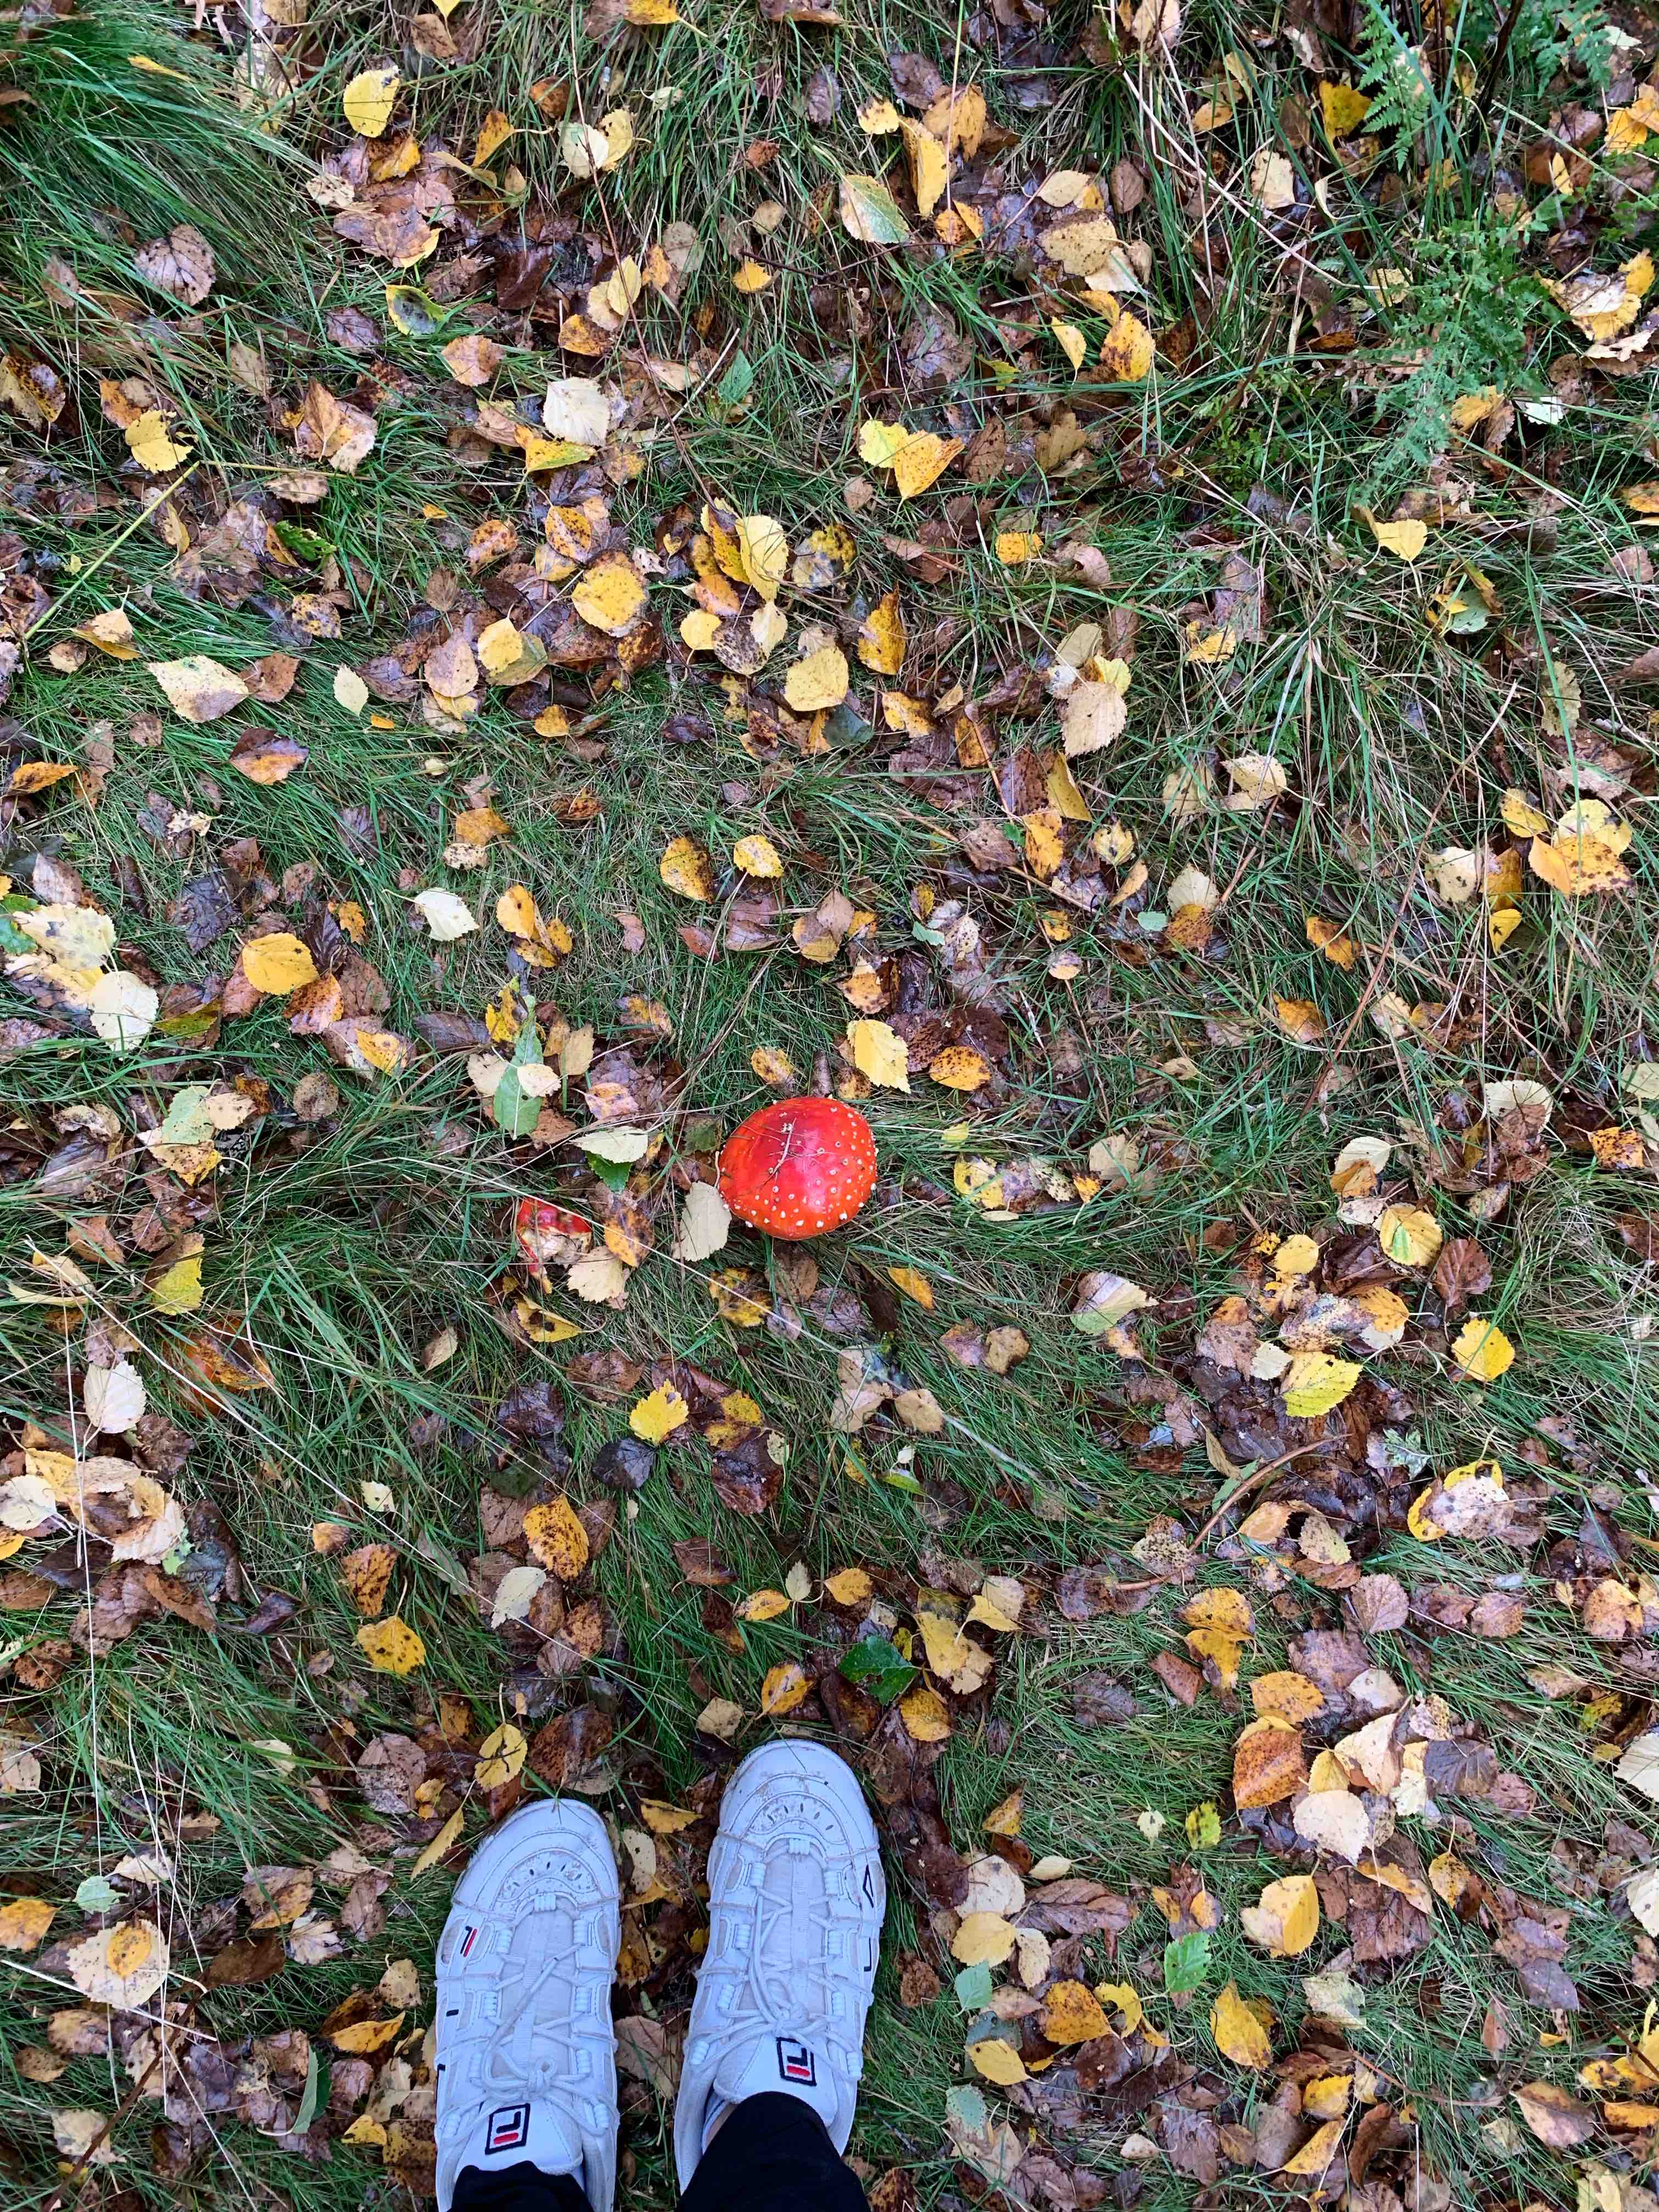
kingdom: Fungi
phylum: Basidiomycota
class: Agaricomycetes
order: Agaricales
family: Amanitaceae
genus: Amanita
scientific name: Amanita muscaria
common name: rød fluesvamp
